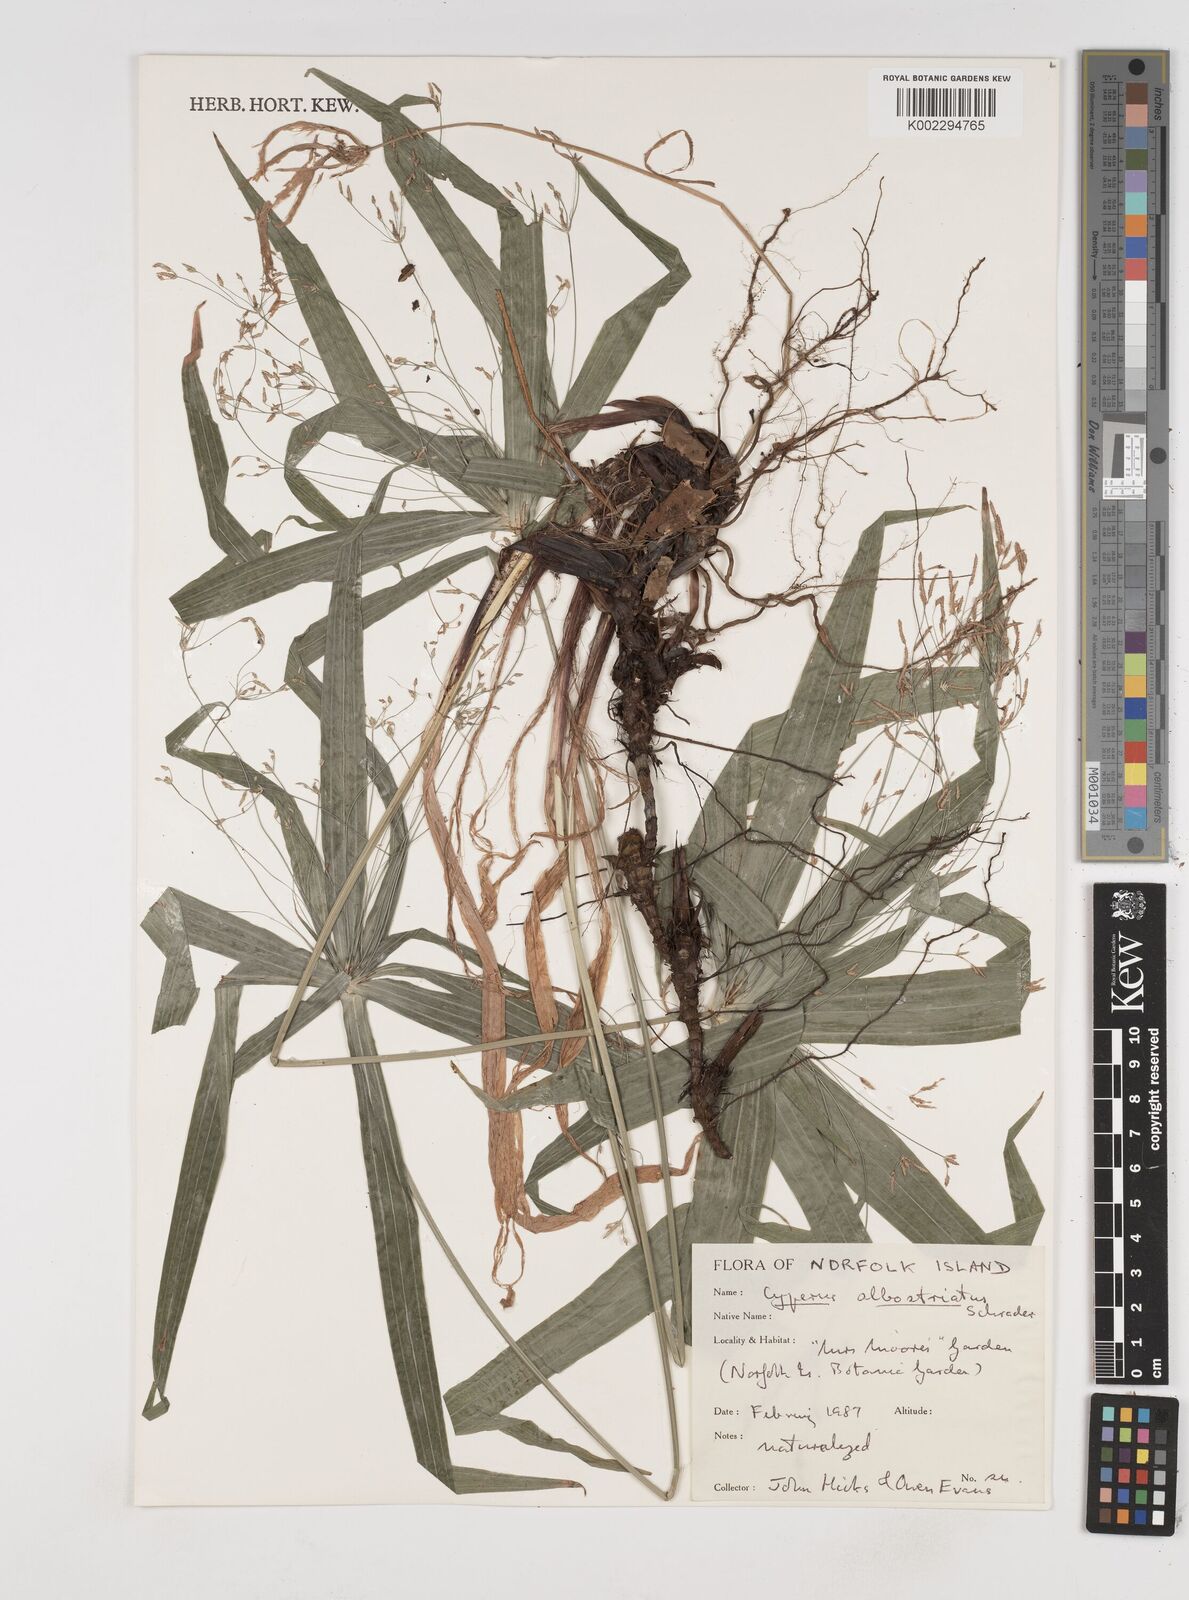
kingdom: Plantae
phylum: Tracheophyta
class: Liliopsida
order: Poales
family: Cyperaceae
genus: Cyperus
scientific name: Cyperus albostriatus
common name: Dwarf umbrella-grass
